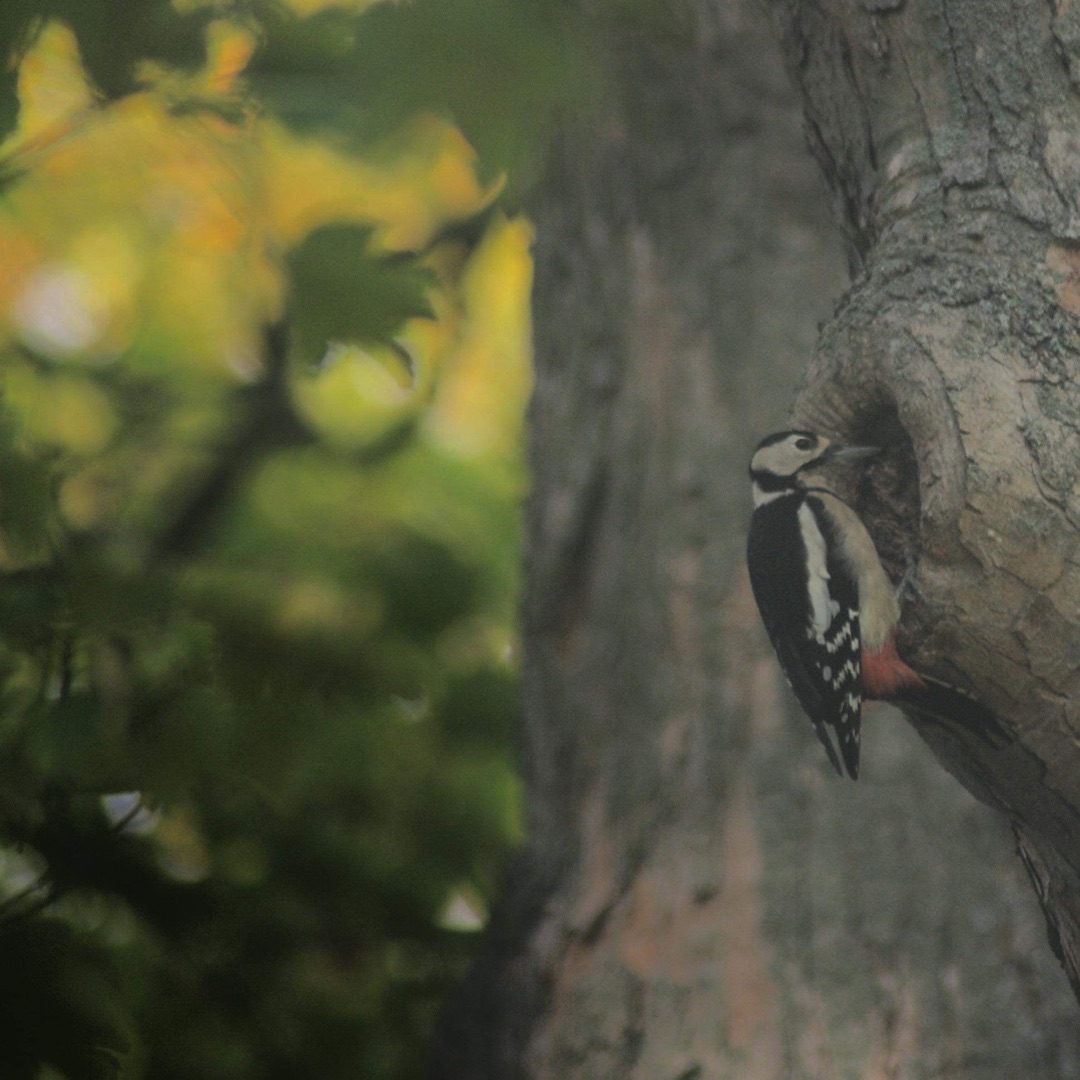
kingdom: Animalia
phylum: Chordata
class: Aves
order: Piciformes
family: Picidae
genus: Dendrocopos
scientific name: Dendrocopos major
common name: Stor flagspætte
